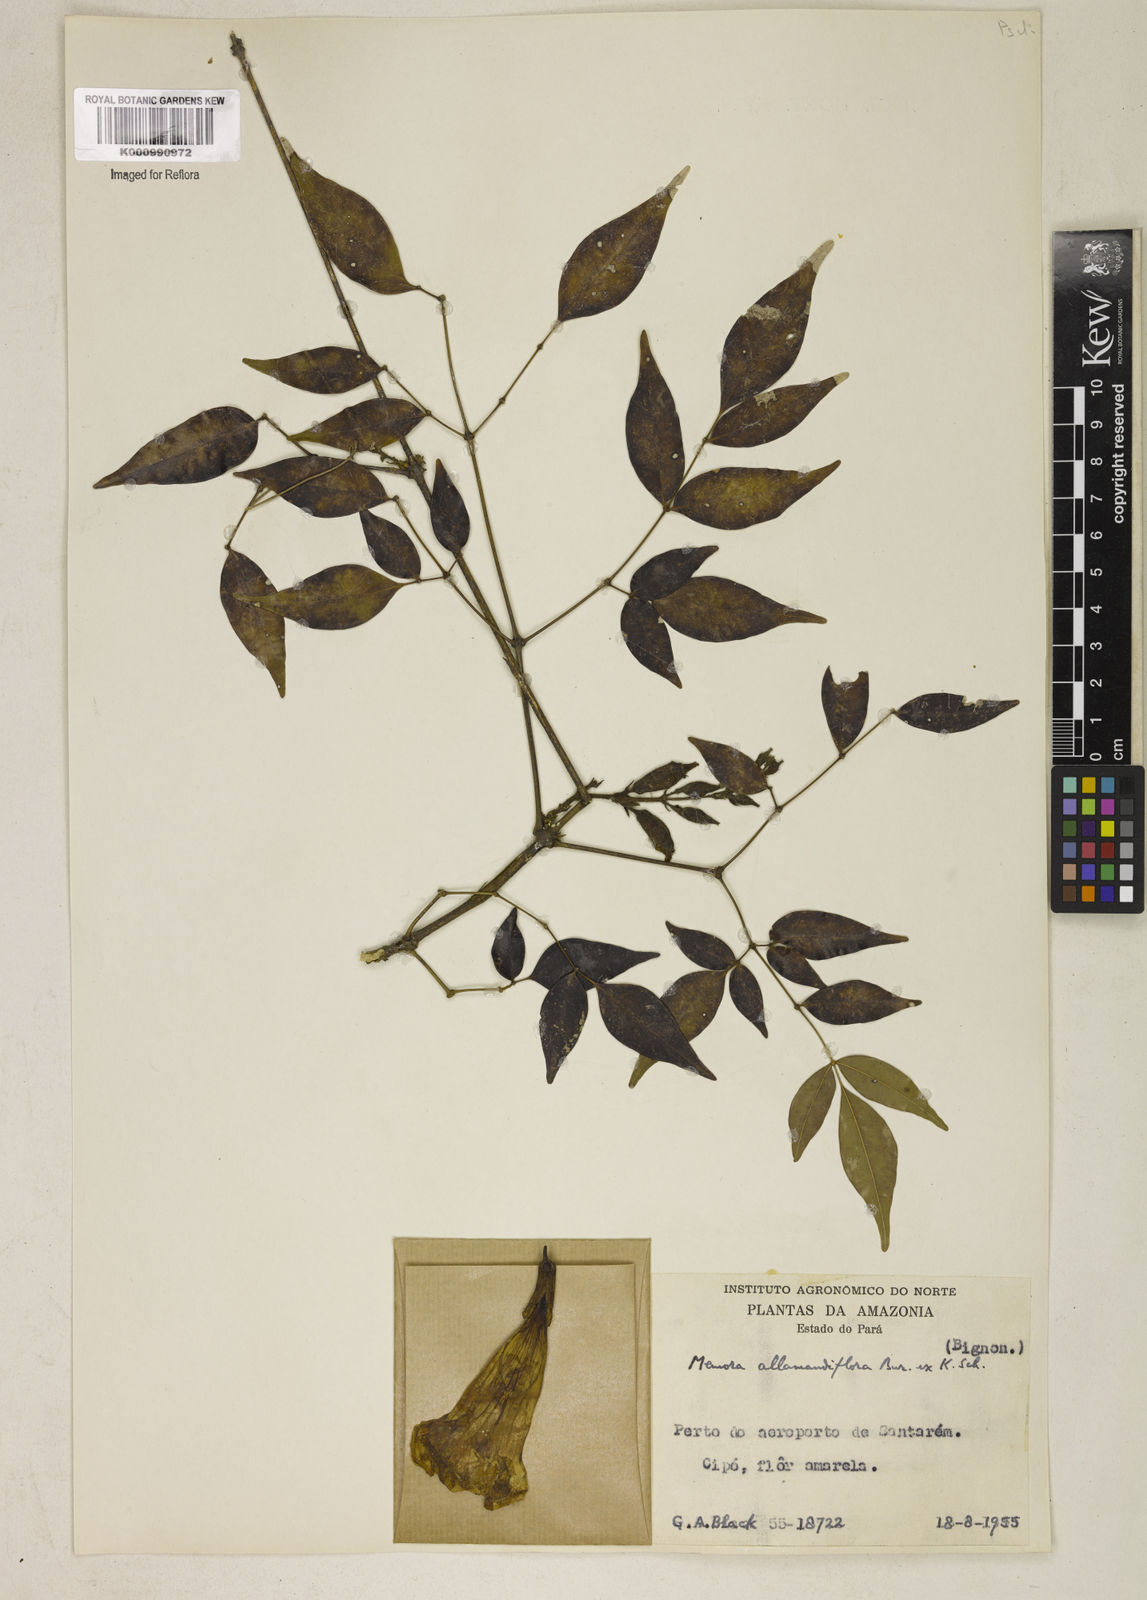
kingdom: Plantae
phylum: Tracheophyta
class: Magnoliopsida
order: Lamiales
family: Bignoniaceae
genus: Adenocalymma
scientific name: Adenocalymma
